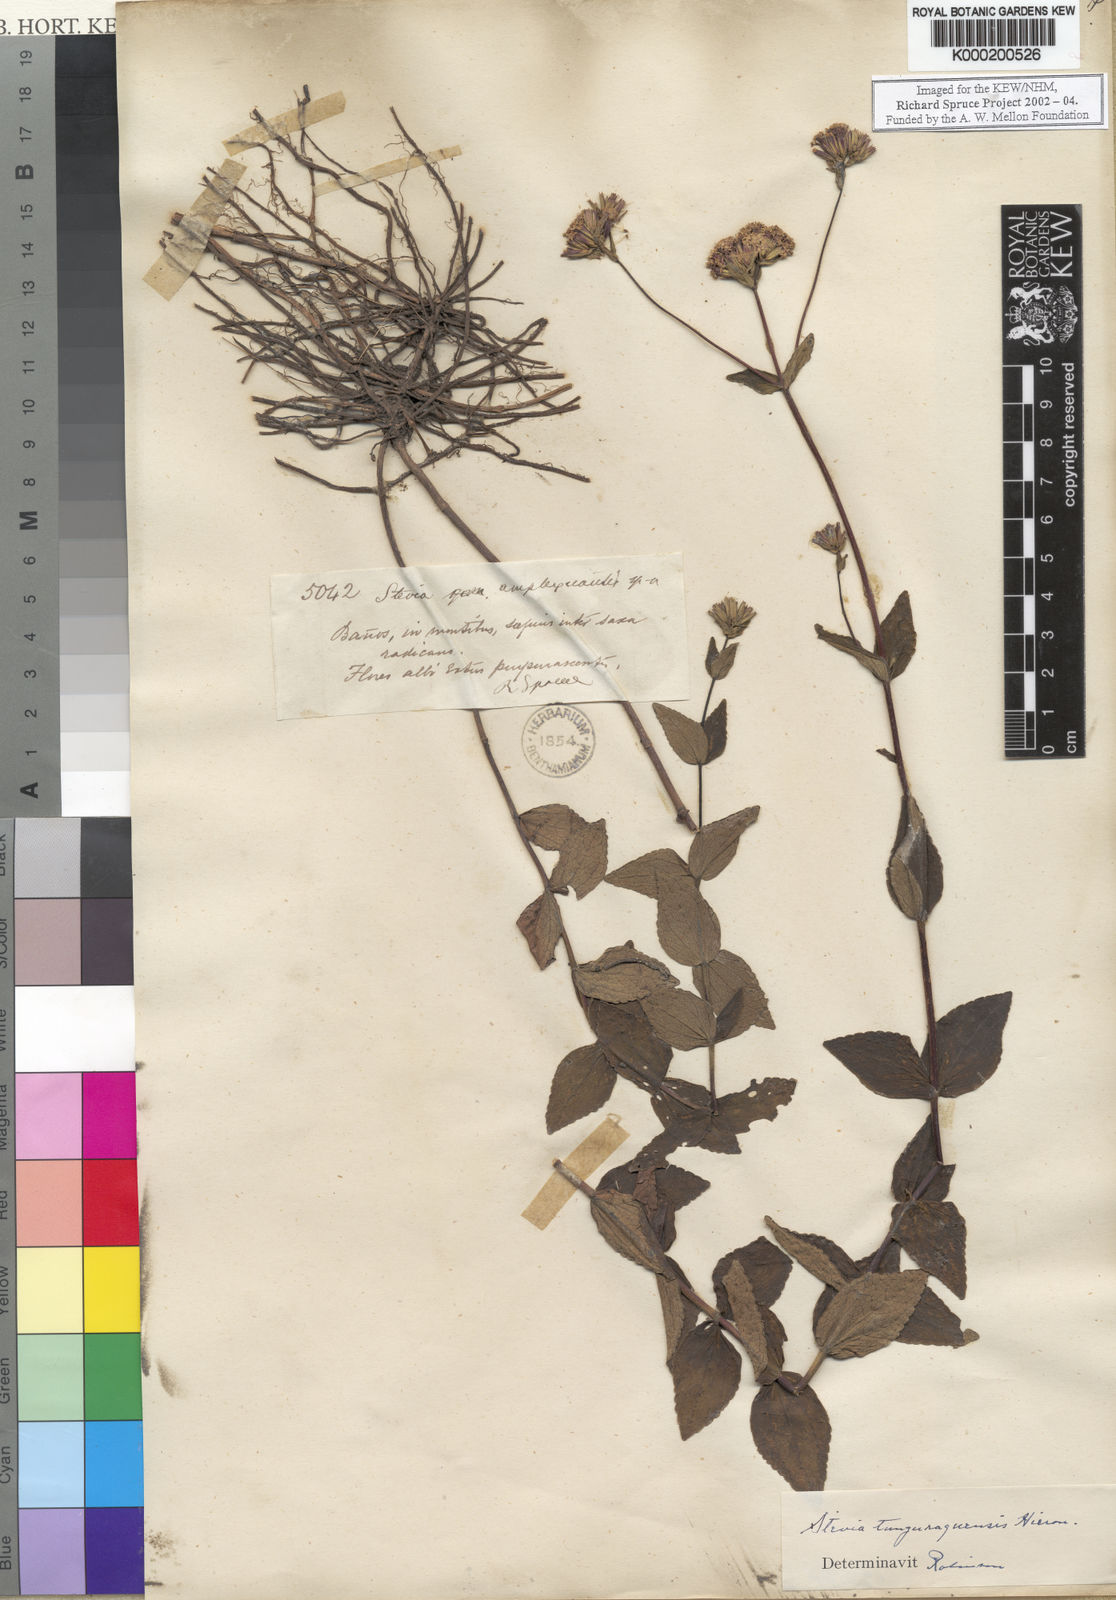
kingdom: Plantae
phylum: Tracheophyta
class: Magnoliopsida
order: Asterales
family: Asteraceae
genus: Stevia
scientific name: Stevia tunguraguensis
